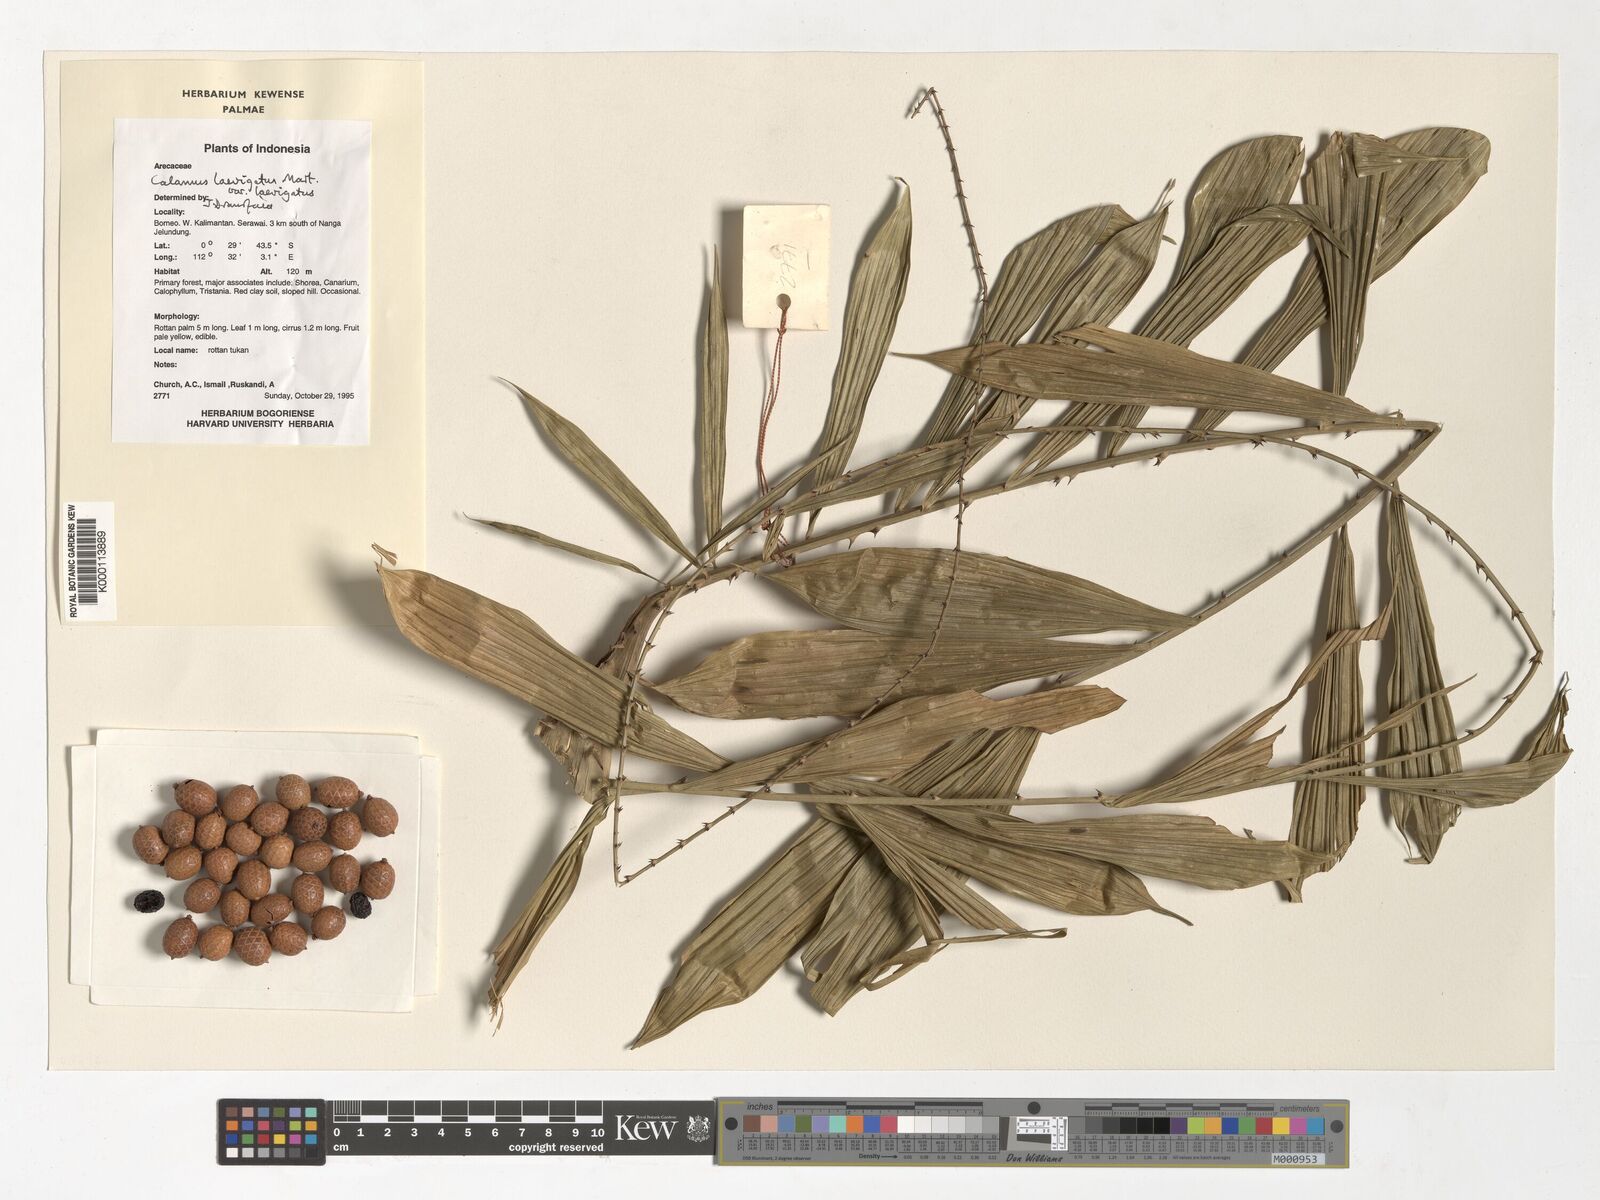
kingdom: Plantae
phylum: Tracheophyta
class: Liliopsida
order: Arecales
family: Arecaceae
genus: Calamus
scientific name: Calamus
